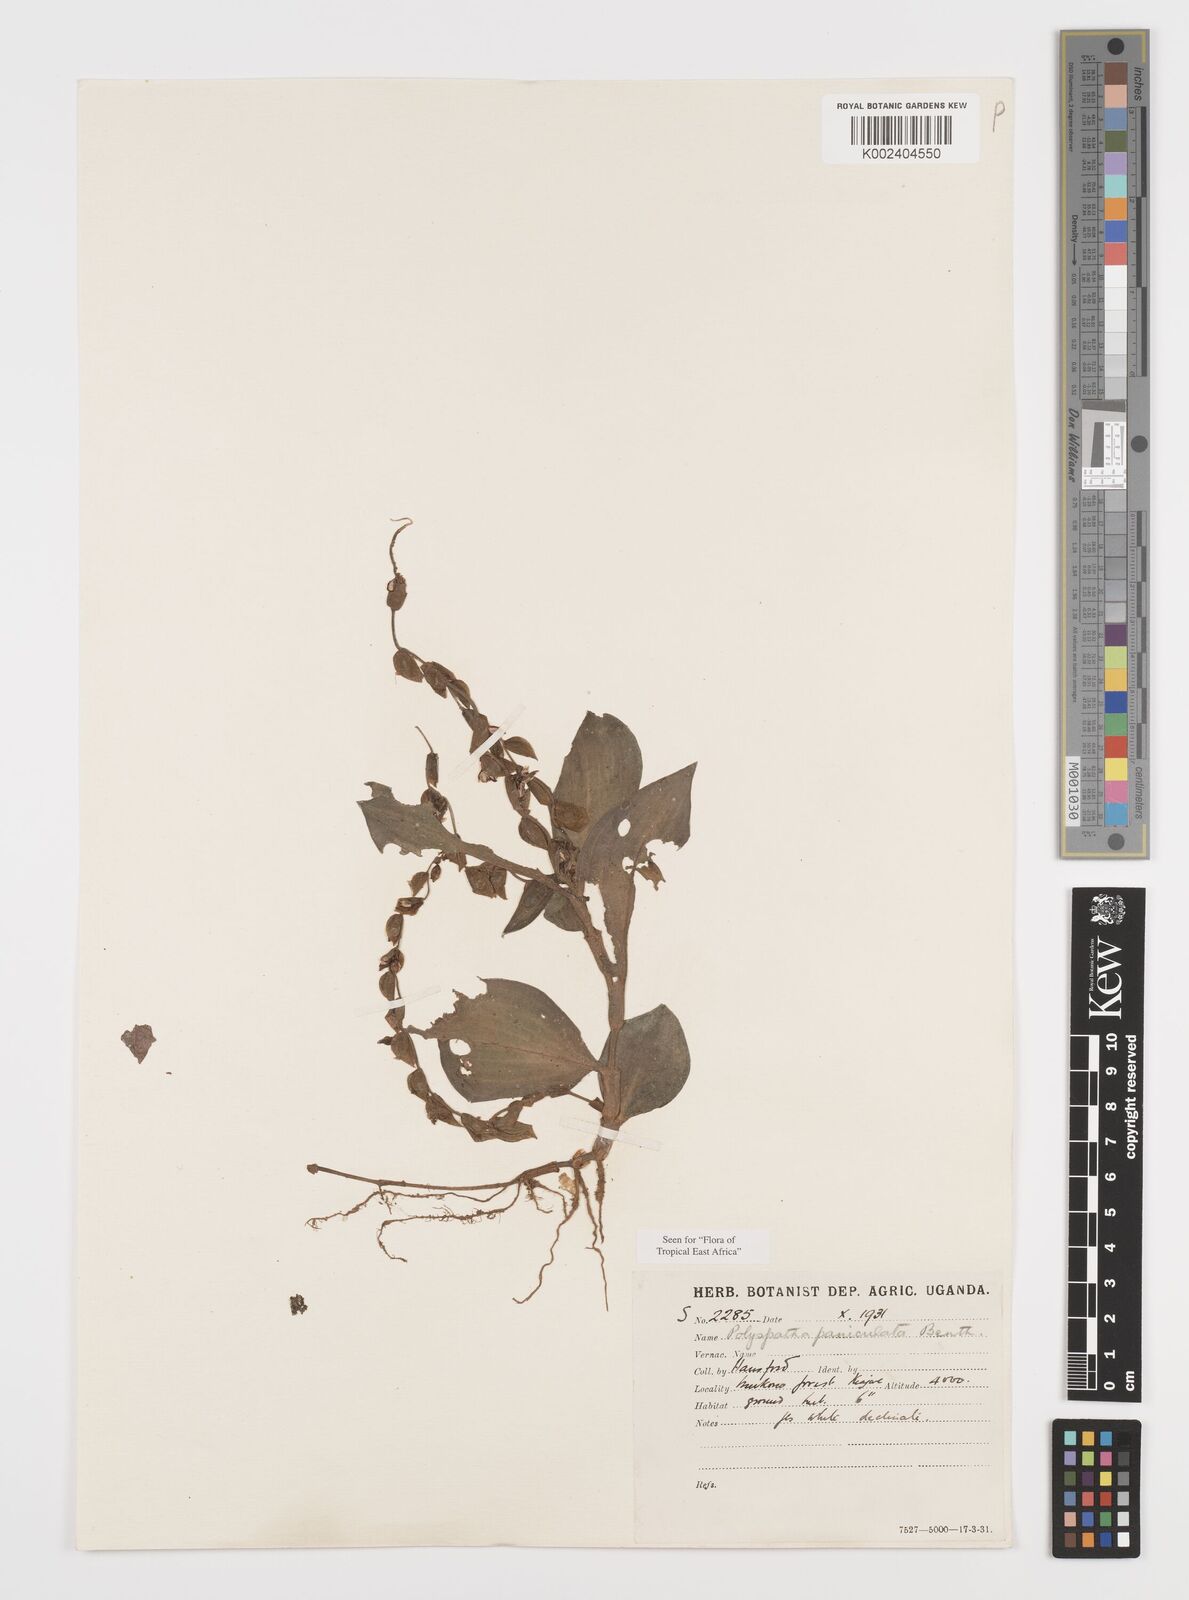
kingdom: Plantae
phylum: Tracheophyta
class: Liliopsida
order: Commelinales
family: Commelinaceae
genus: Polyspatha
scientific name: Polyspatha paniculata
